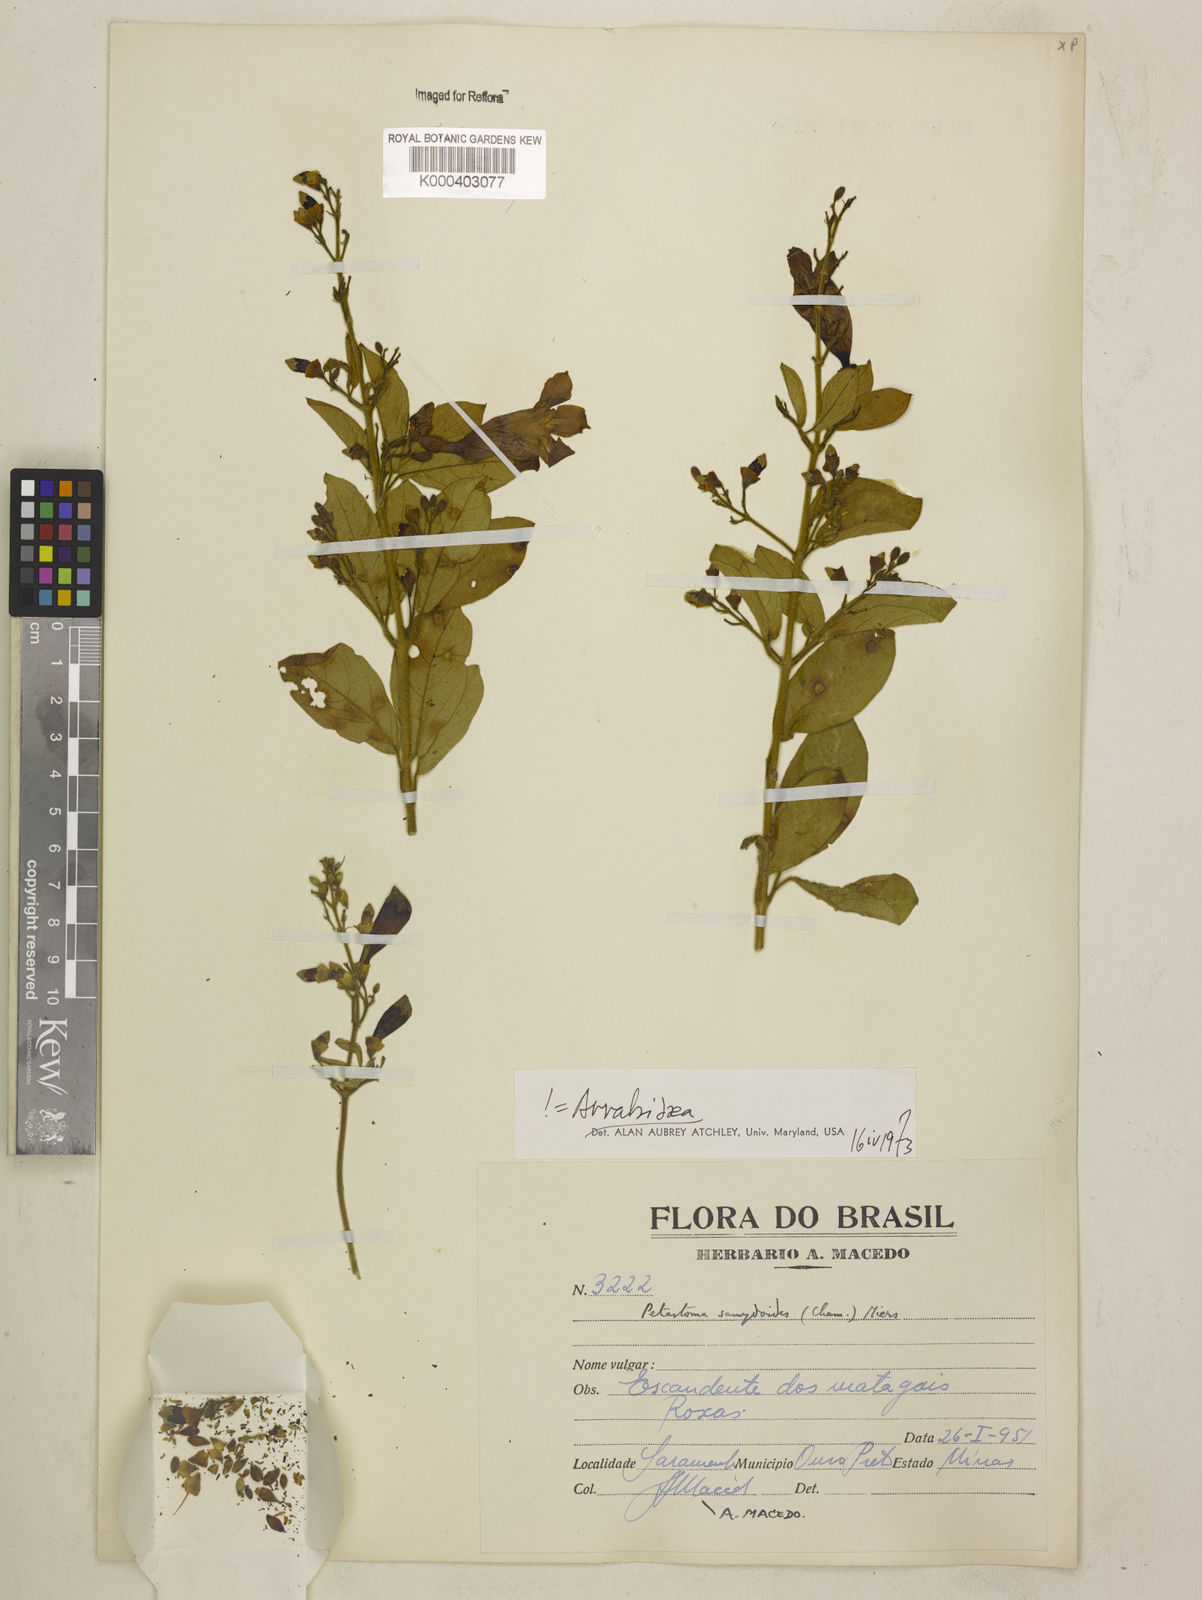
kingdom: Plantae
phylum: Tracheophyta
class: Magnoliopsida
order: Lamiales
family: Bignoniaceae
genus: Fridericia
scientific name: Fridericia samydoides
